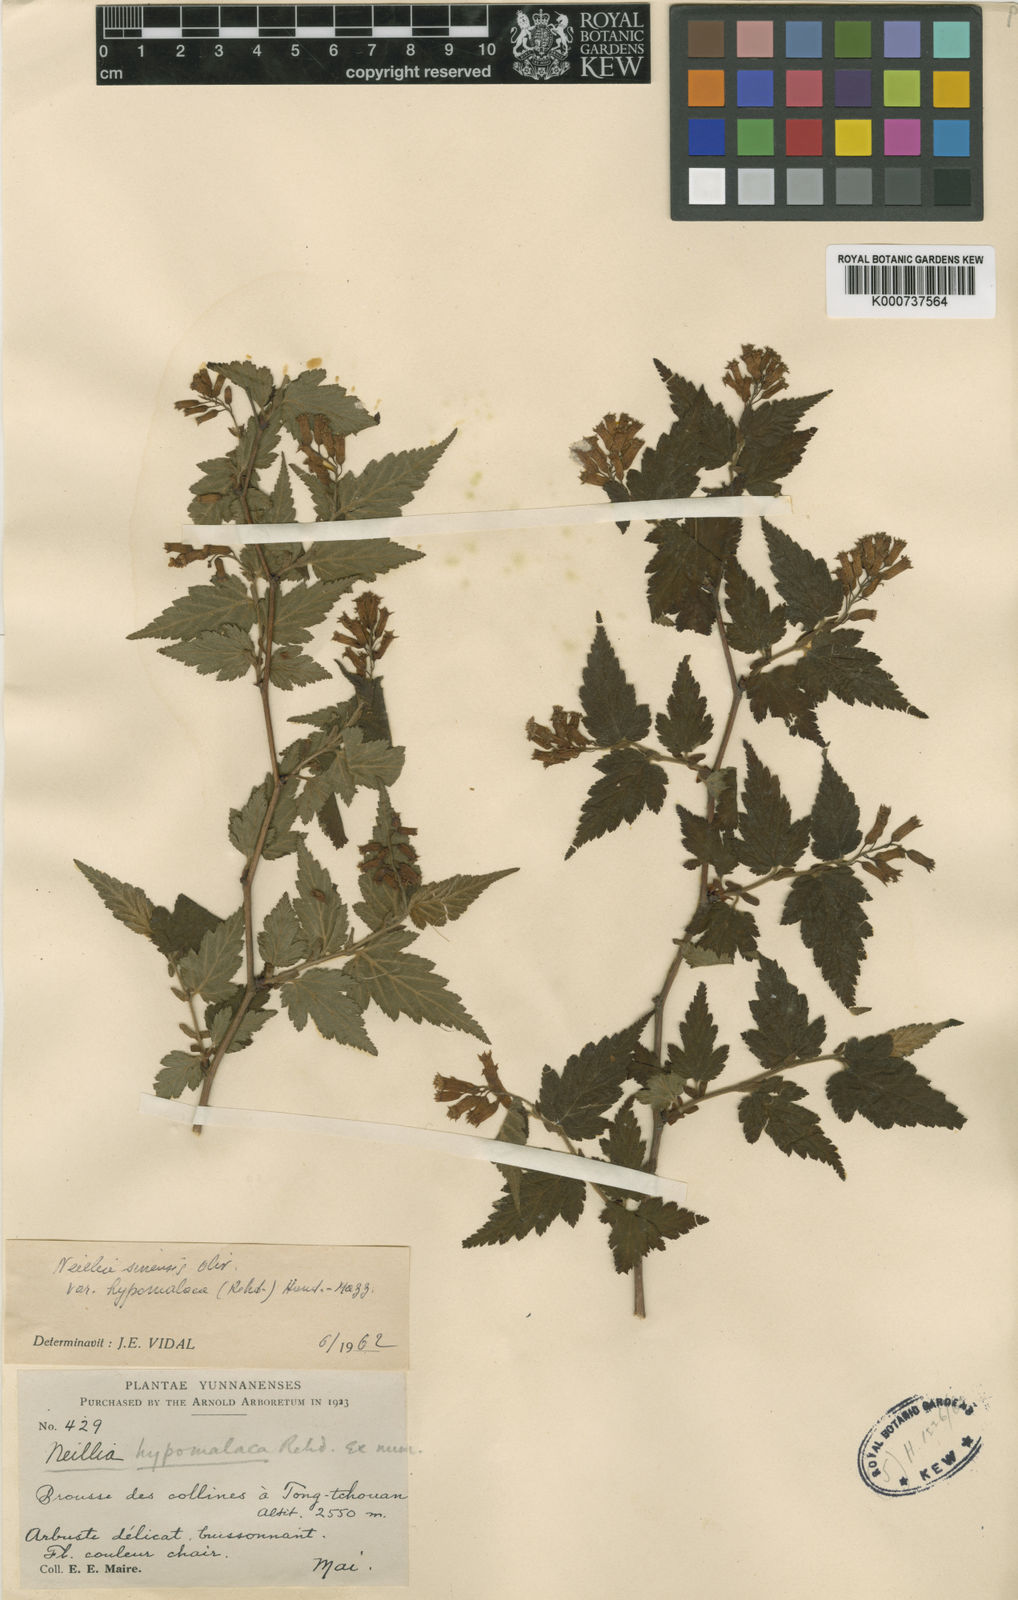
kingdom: Plantae
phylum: Tracheophyta
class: Magnoliopsida
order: Rosales
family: Rosaceae
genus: Neillia
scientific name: Neillia sinensis
